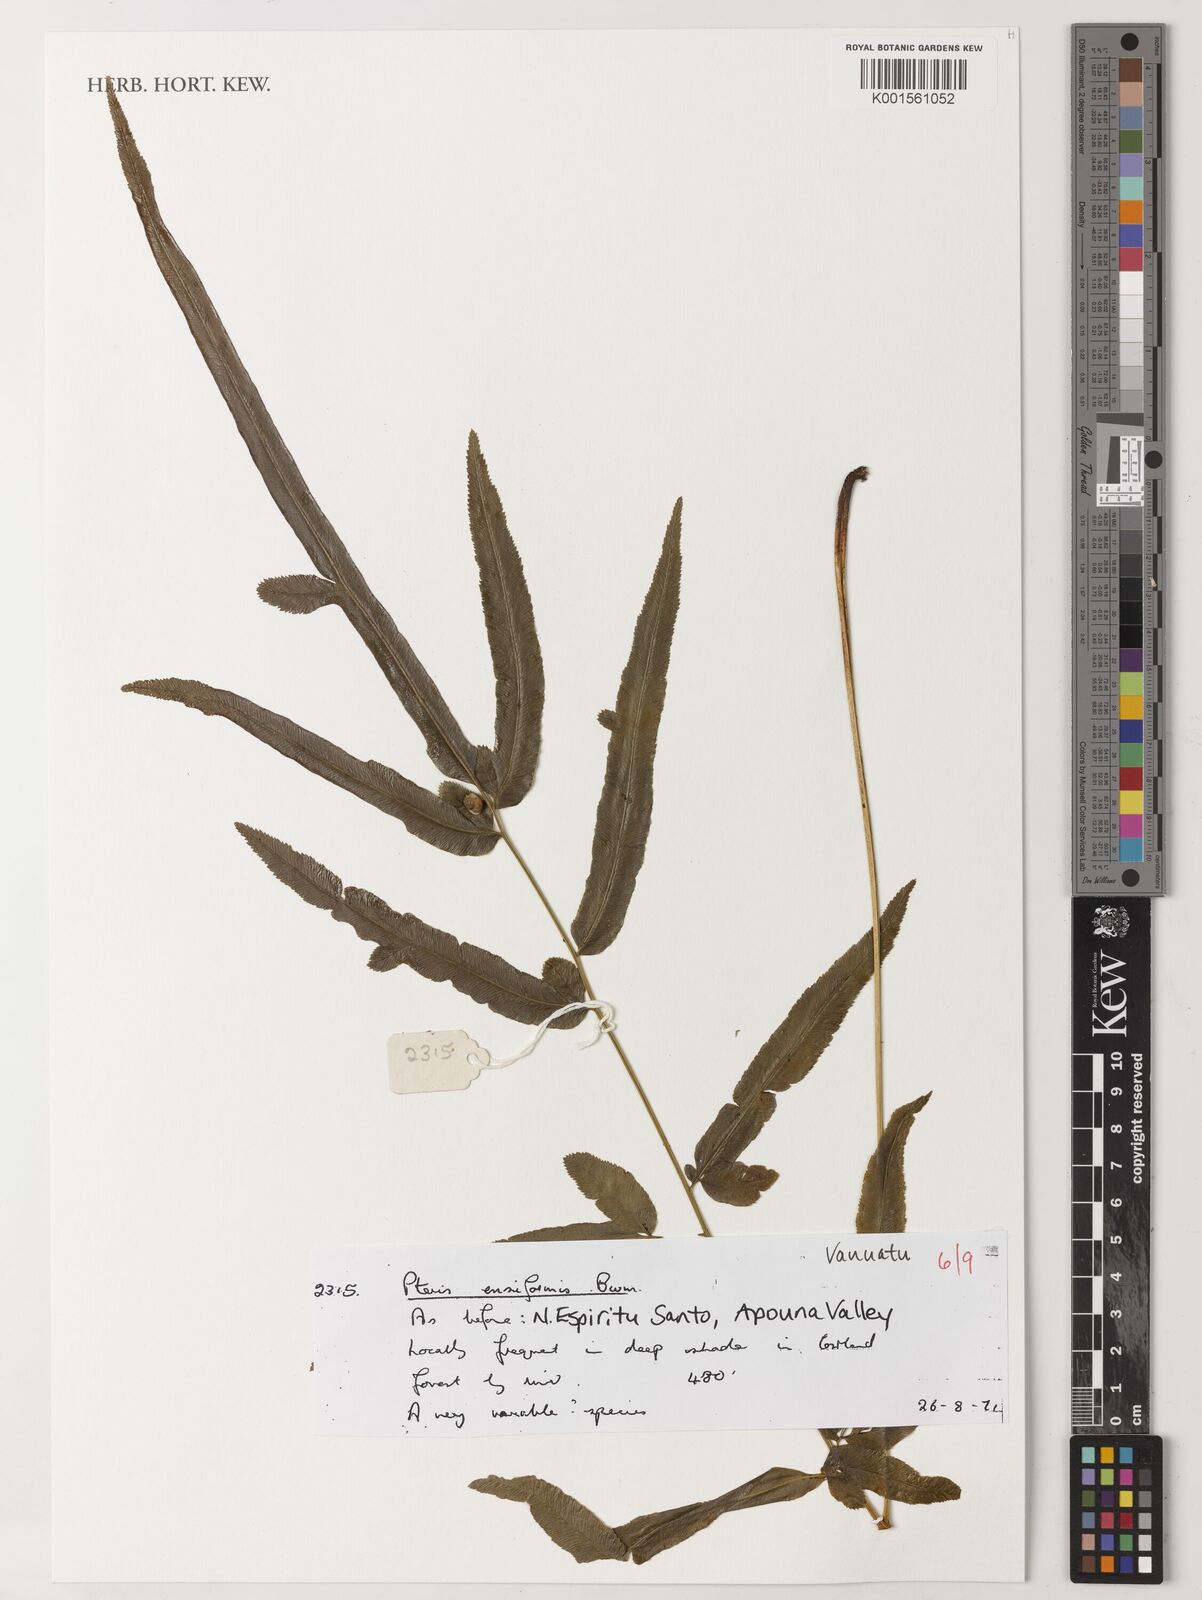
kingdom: Plantae
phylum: Tracheophyta
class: Polypodiopsida
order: Polypodiales
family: Pteridaceae
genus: Pteris
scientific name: Pteris ensiformis
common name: Sword brake
